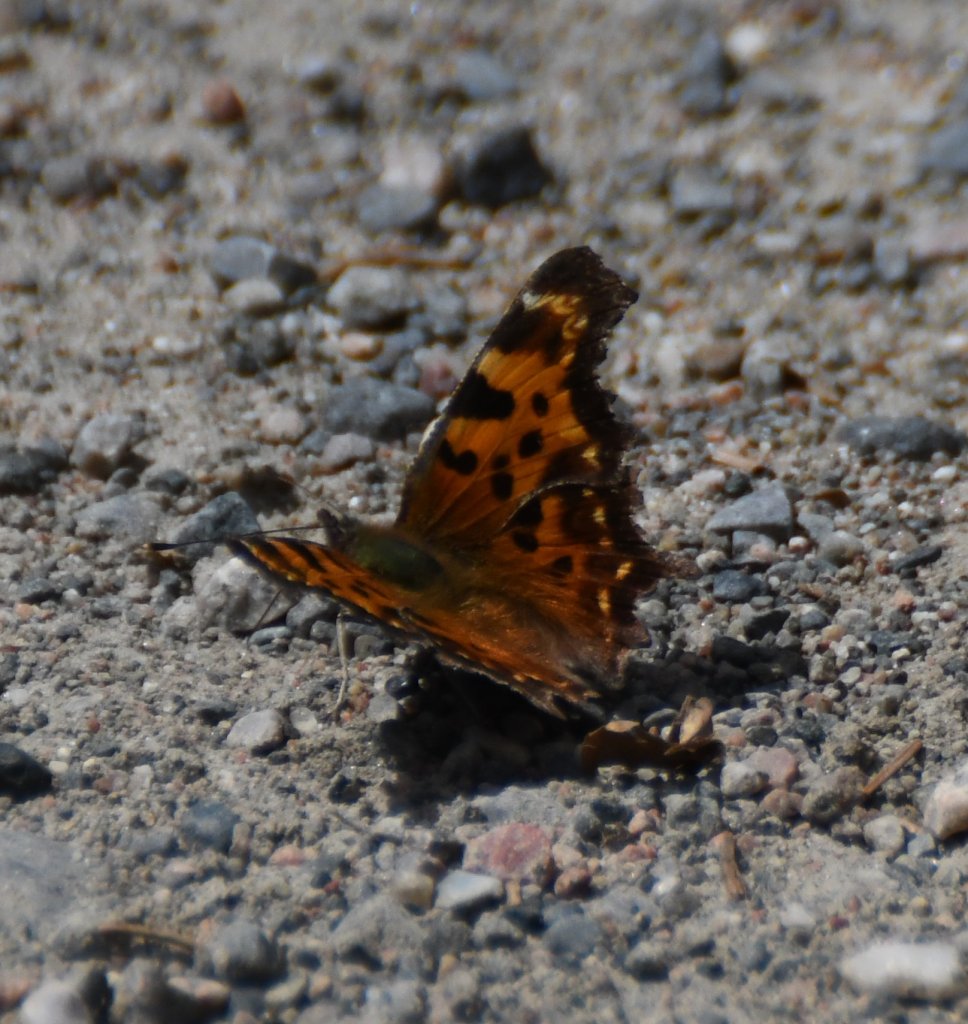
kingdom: Animalia
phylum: Arthropoda
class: Insecta
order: Lepidoptera
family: Nymphalidae
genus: Polygonia
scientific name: Polygonia faunus
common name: Green Comma
